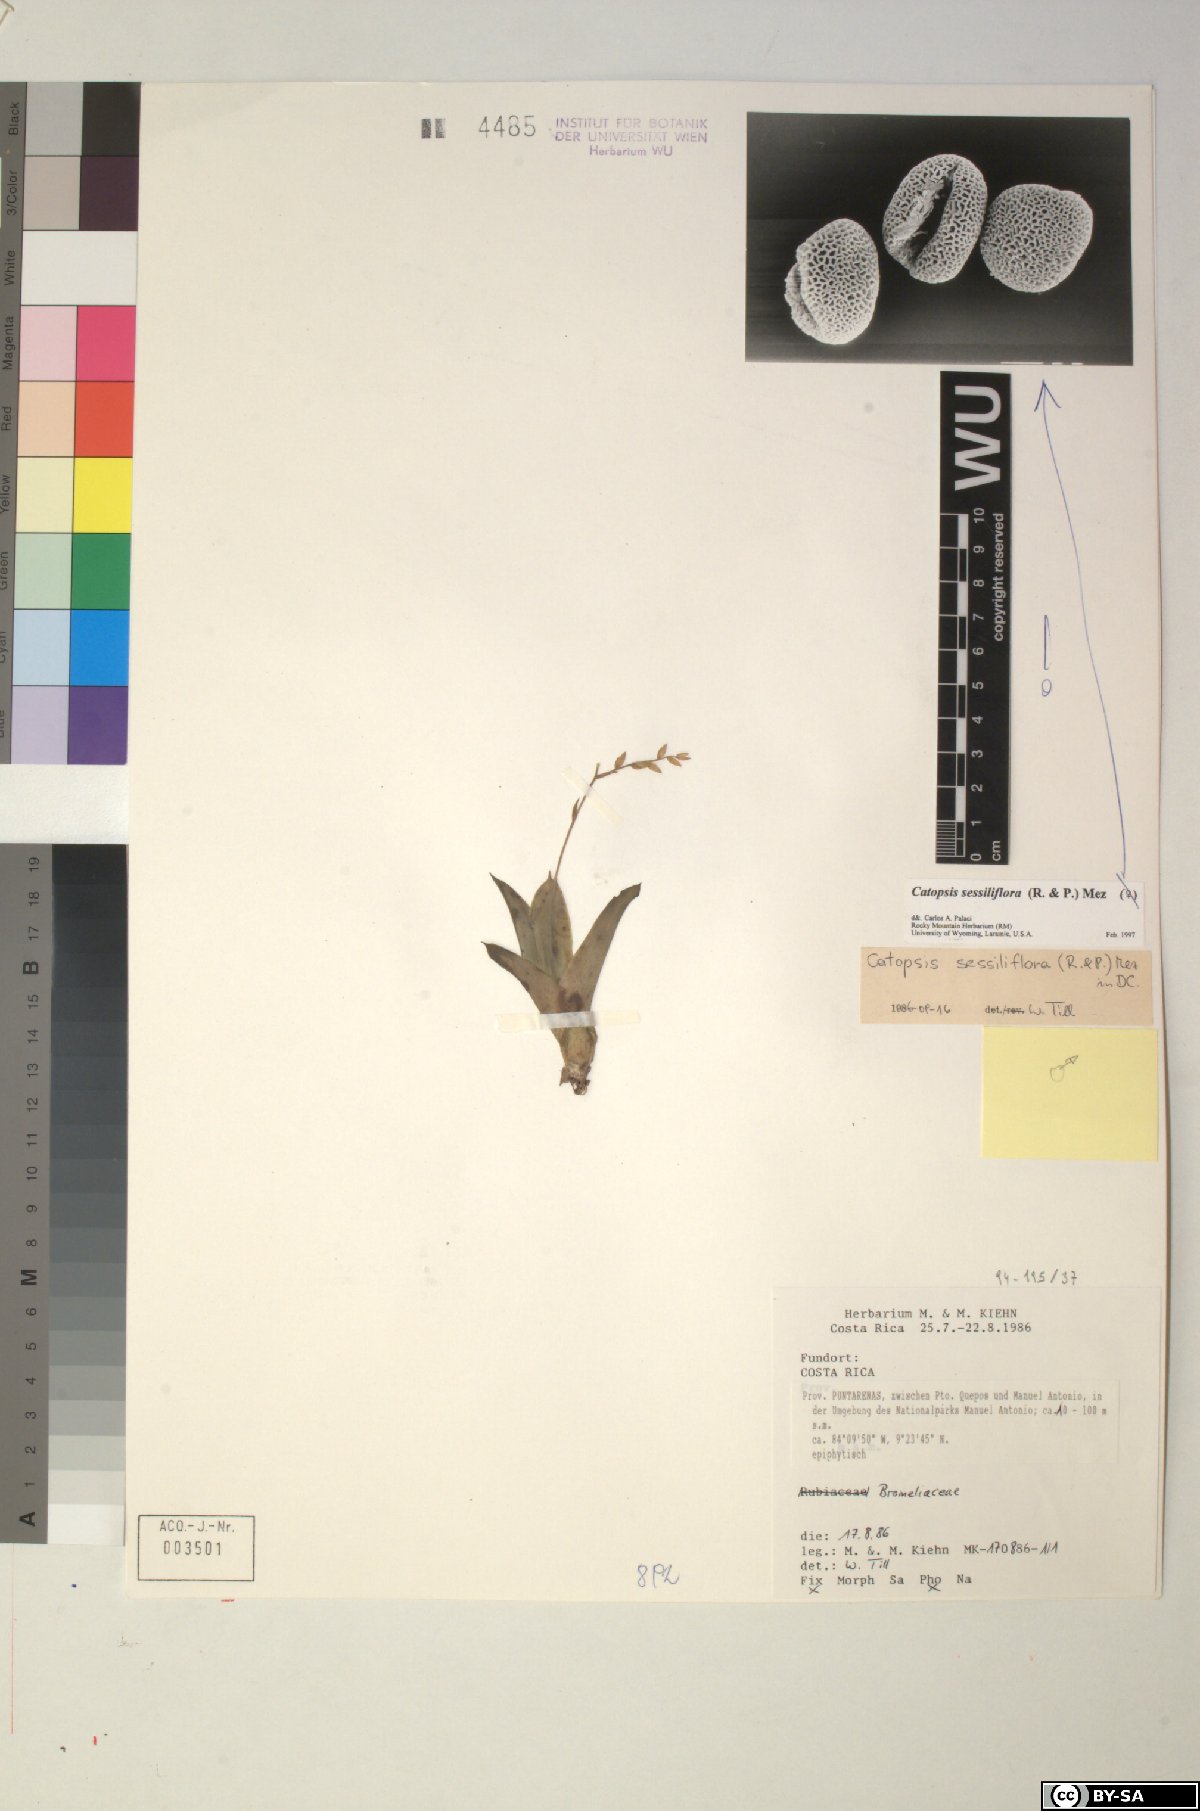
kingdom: Plantae
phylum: Tracheophyta
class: Liliopsida
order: Poales
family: Bromeliaceae
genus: Catopsis
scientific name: Catopsis sessiliflora
